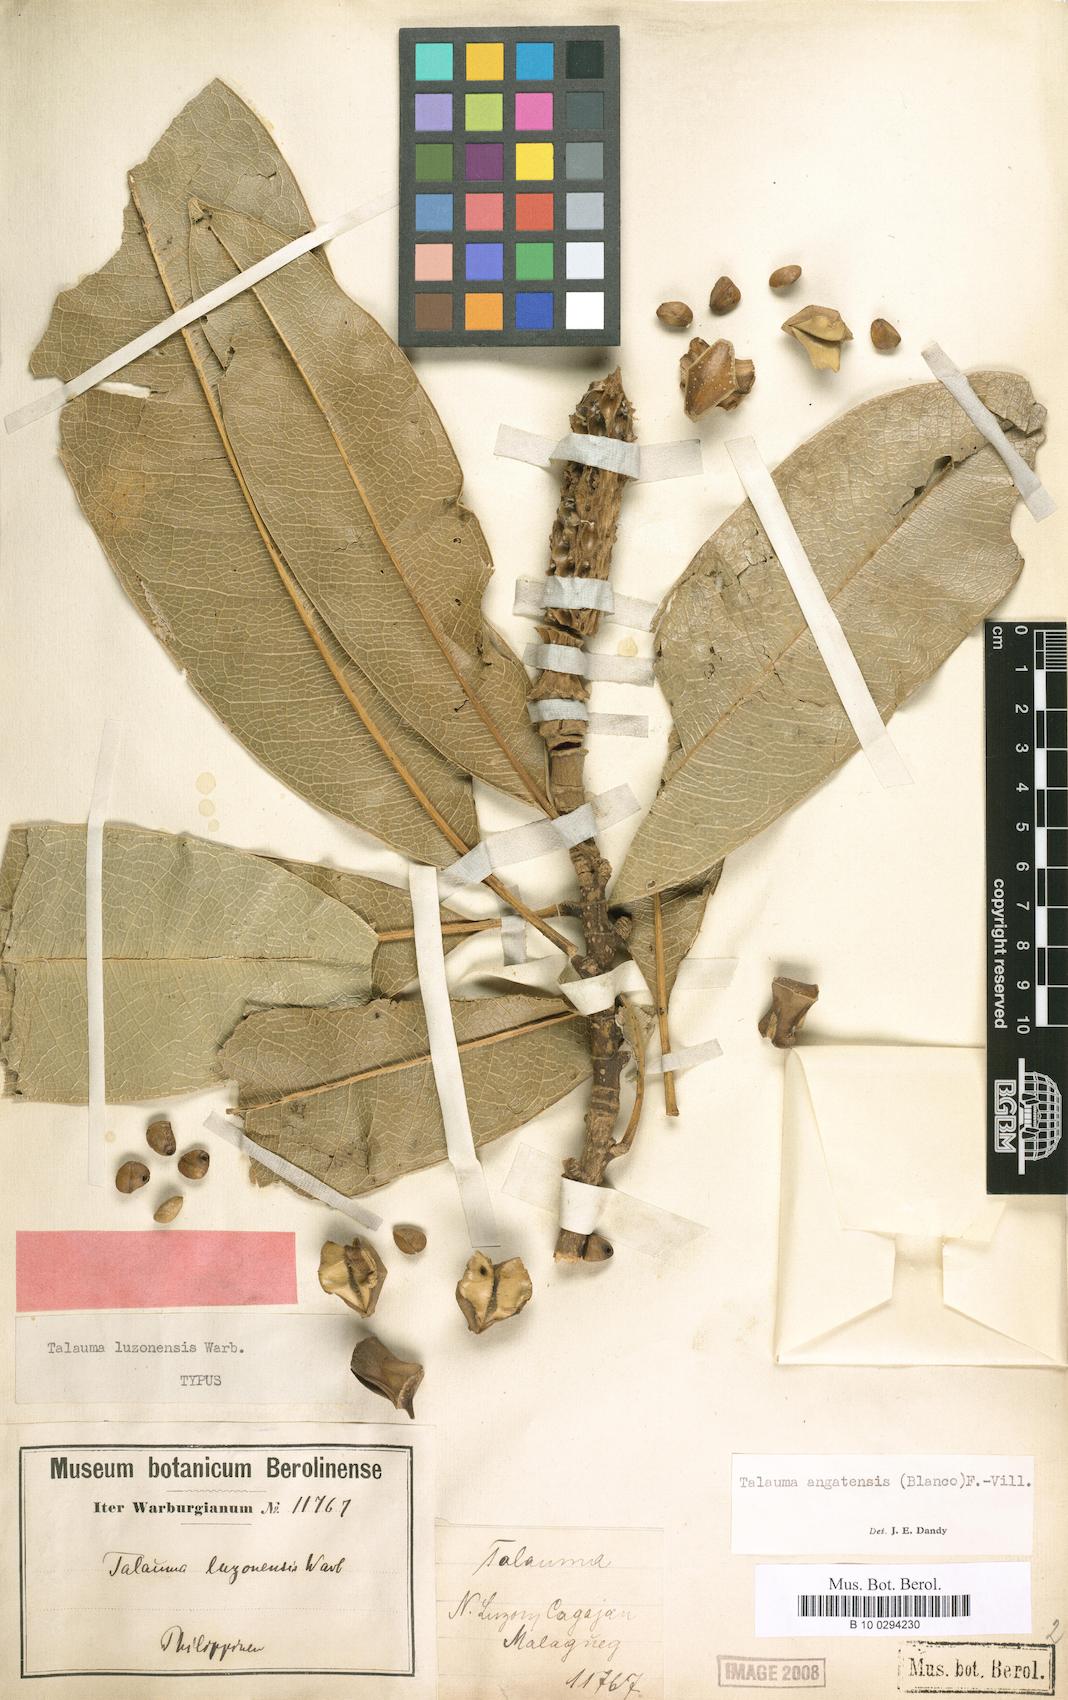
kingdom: Plantae
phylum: Tracheophyta
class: Magnoliopsida
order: Magnoliales
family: Magnoliaceae
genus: Magnolia
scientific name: Magnolia angatensis
